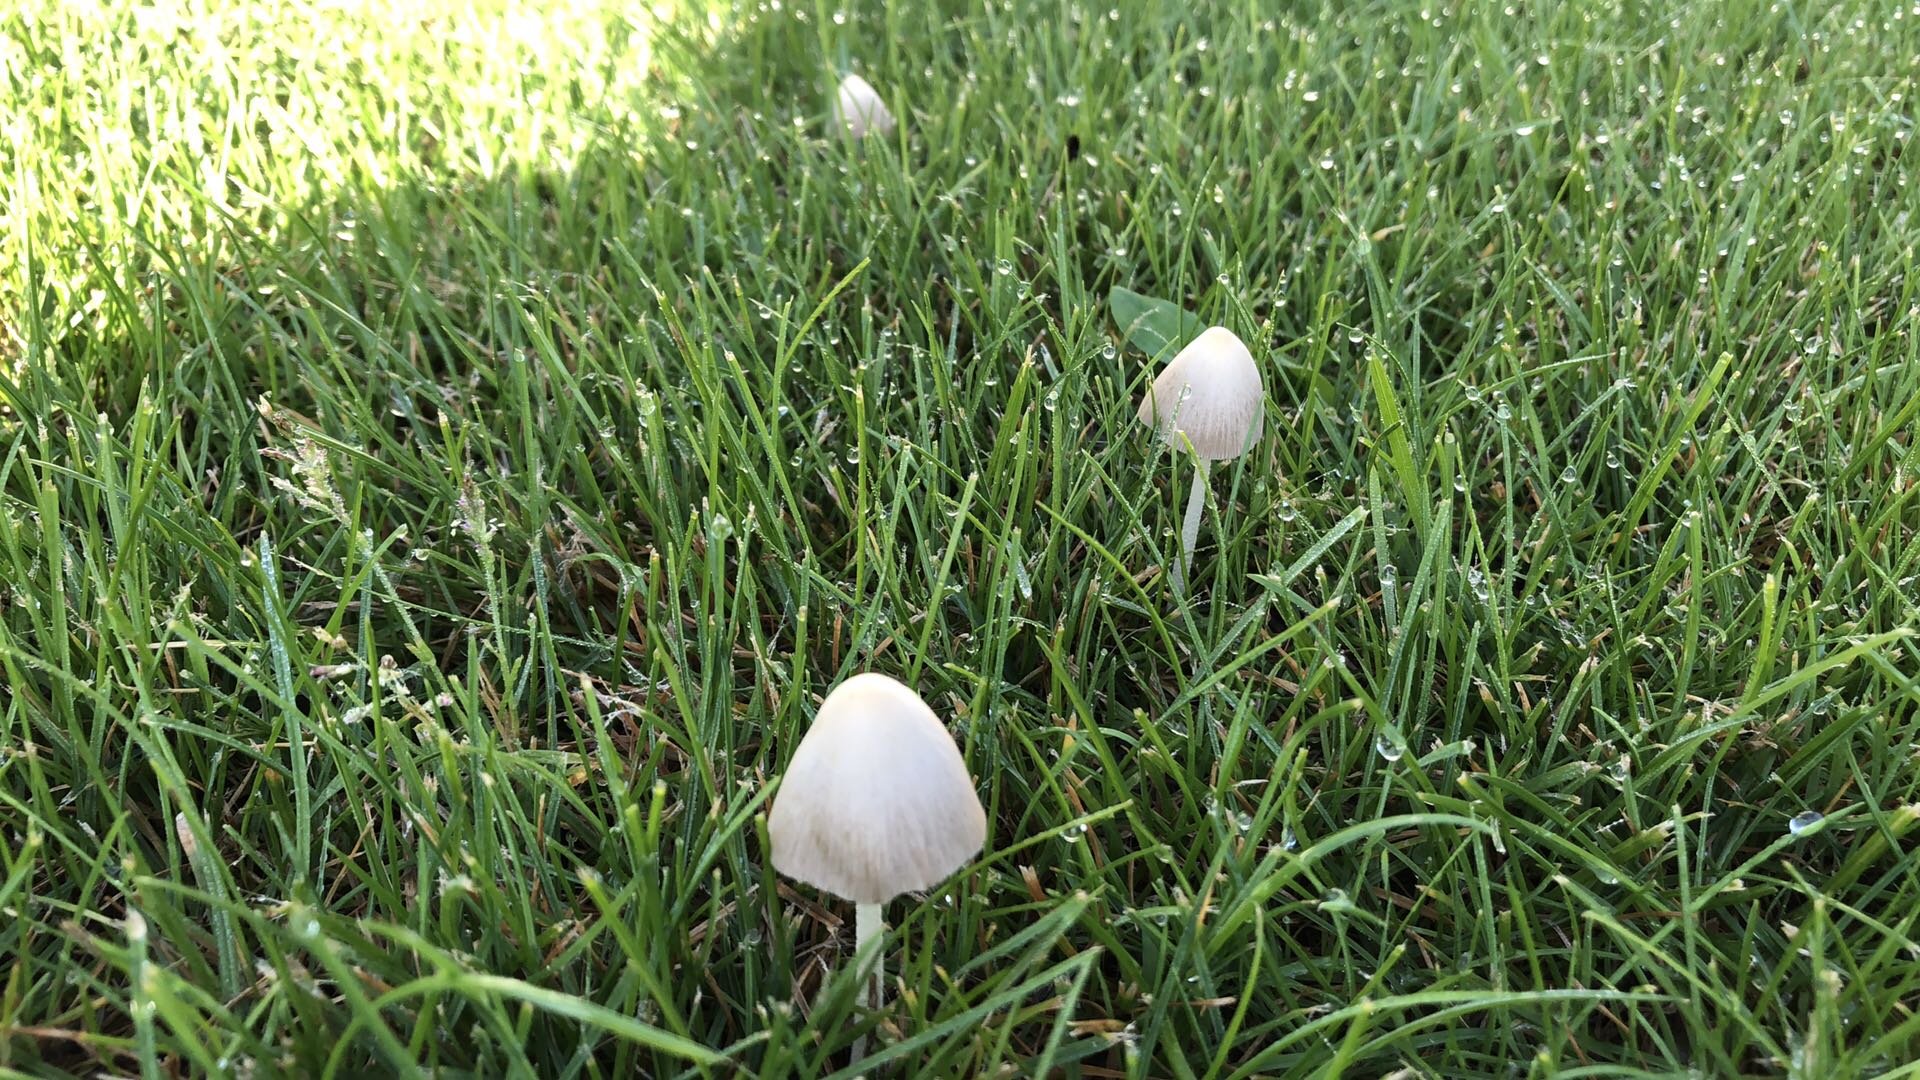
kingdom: Fungi
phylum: Basidiomycota
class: Agaricomycetes
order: Agaricales
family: Bolbitiaceae
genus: Conocybe
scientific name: Conocybe apala
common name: mælkehvid keglehat
